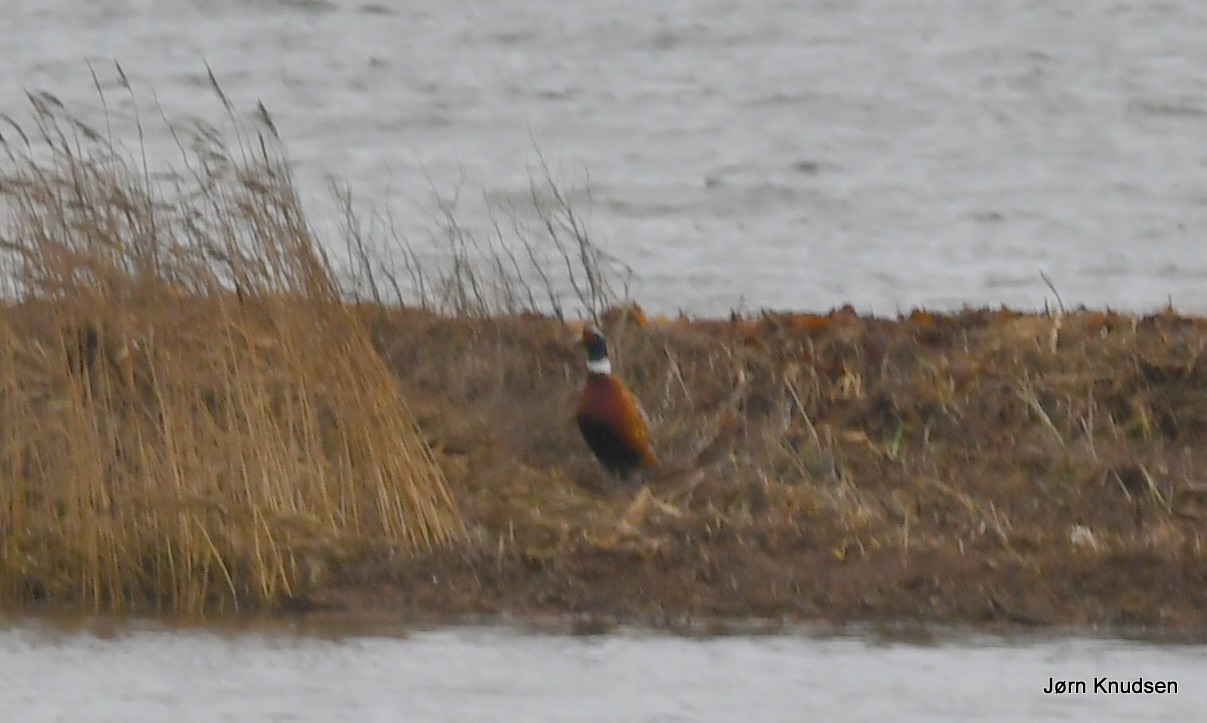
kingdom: Animalia
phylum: Chordata
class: Aves
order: Galliformes
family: Phasianidae
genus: Phasianus
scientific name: Phasianus colchicus
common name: Fasan
